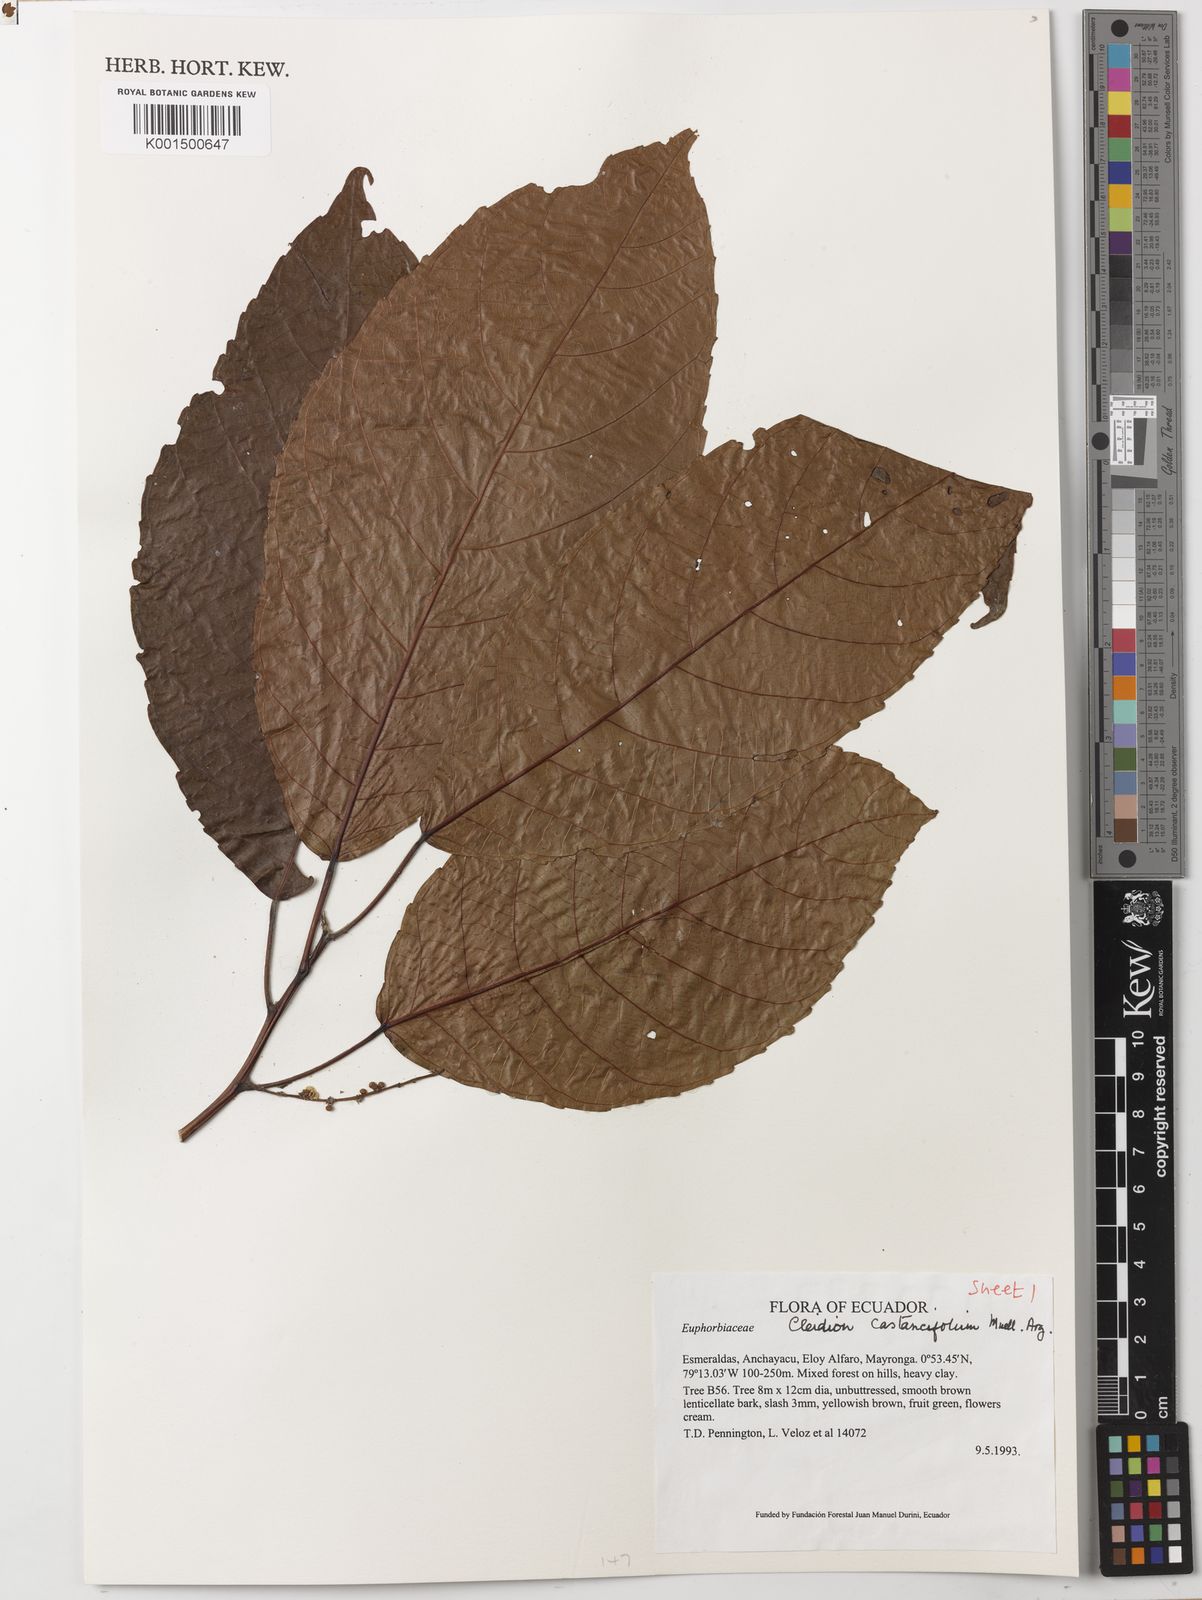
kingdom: Plantae
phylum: Tracheophyta
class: Magnoliopsida
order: Malpighiales
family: Euphorbiaceae
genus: Cleidion
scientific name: Cleidion castaneifolium
